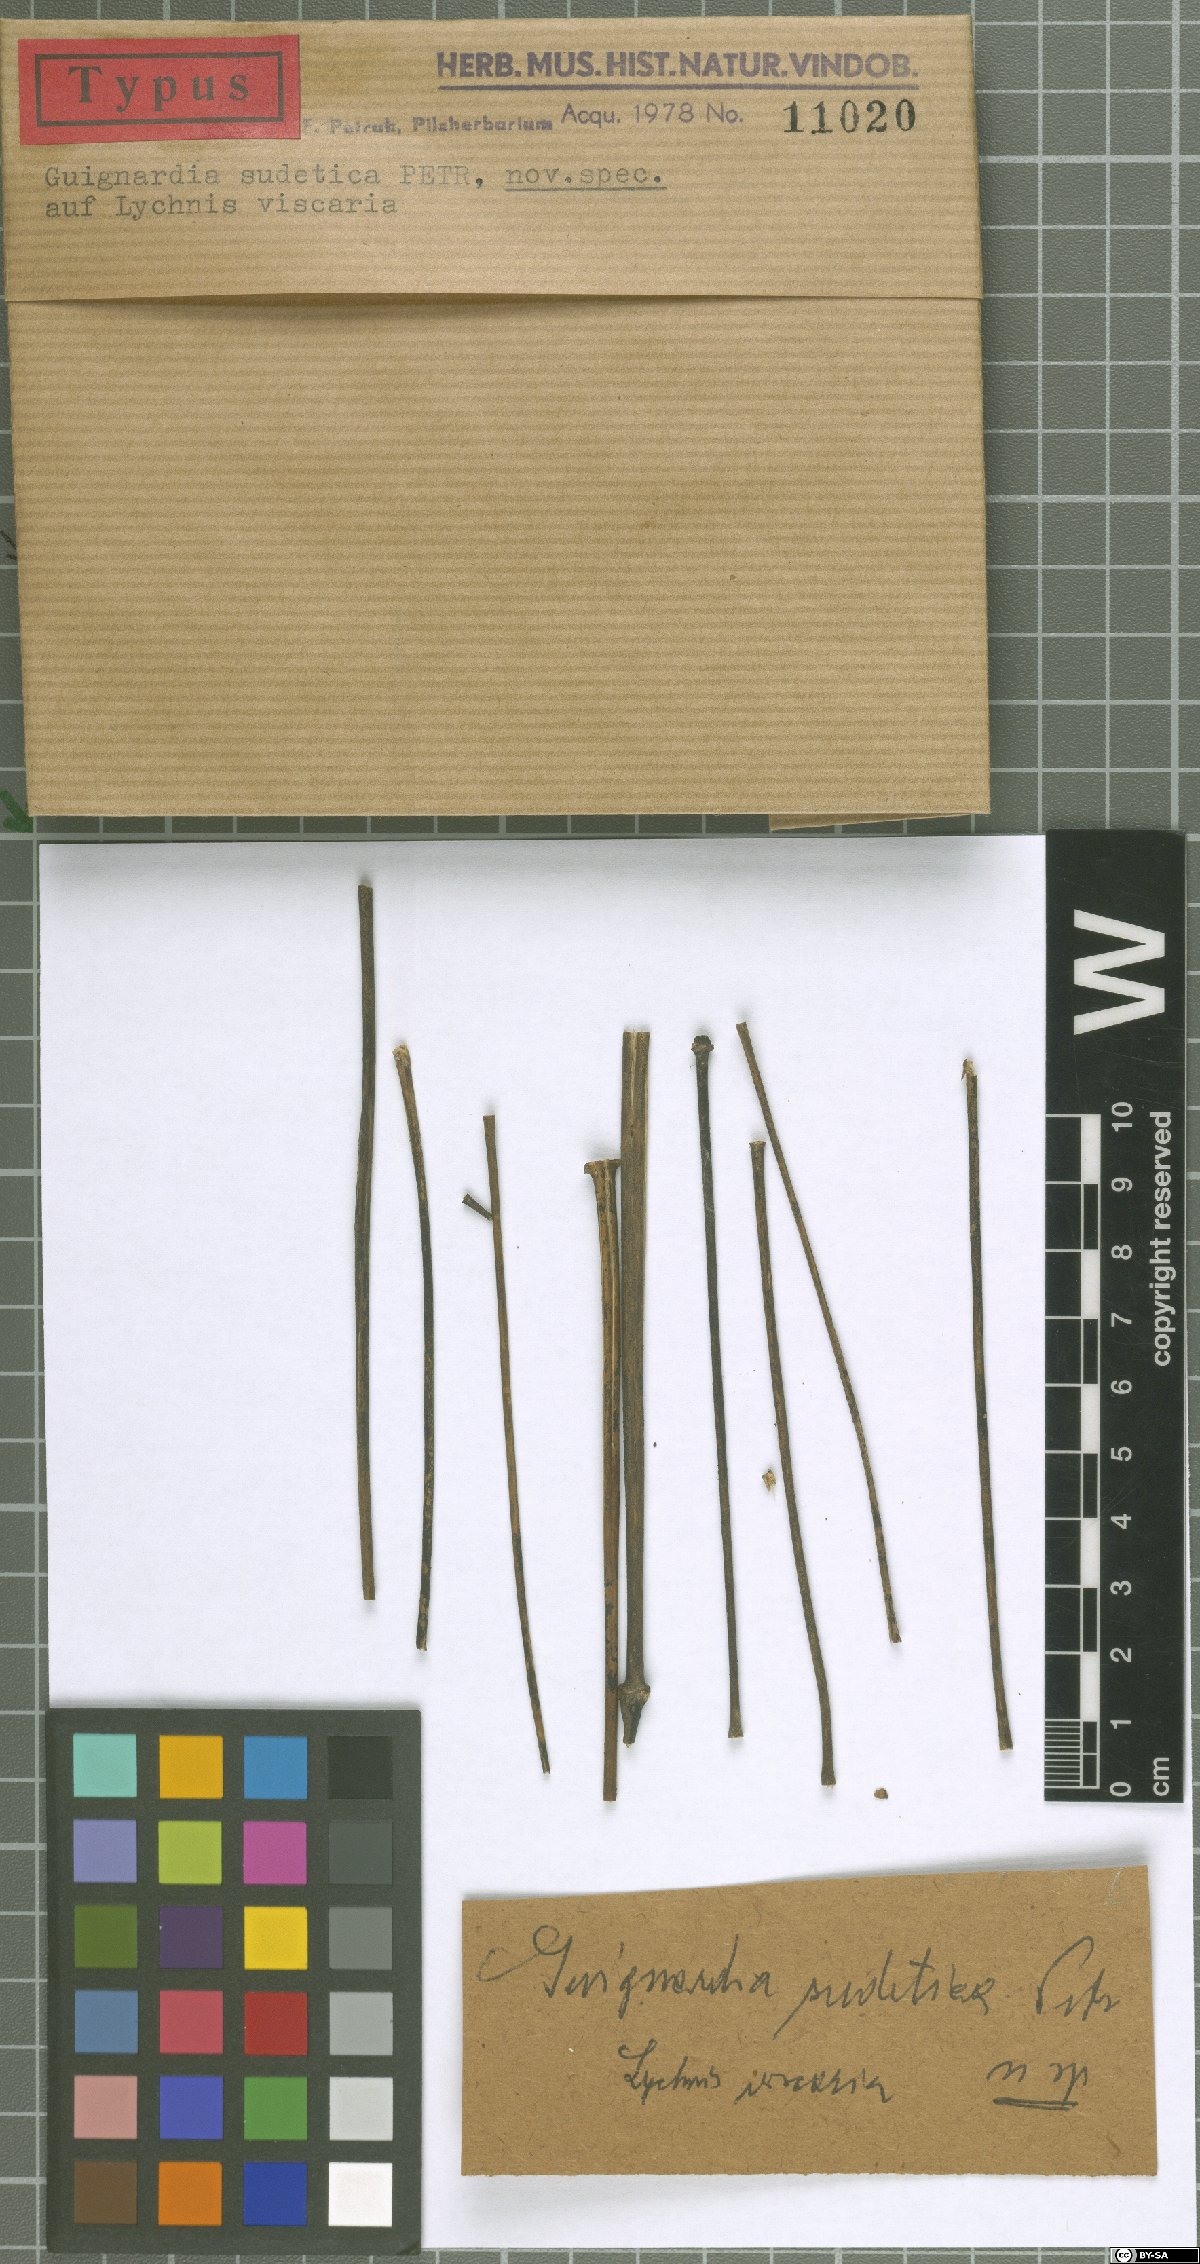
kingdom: Fungi
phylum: Ascomycota
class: Dothideomycetes
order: Botryosphaeriales
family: Phyllostictaceae
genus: Guignardia
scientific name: Guignardia sudetica
